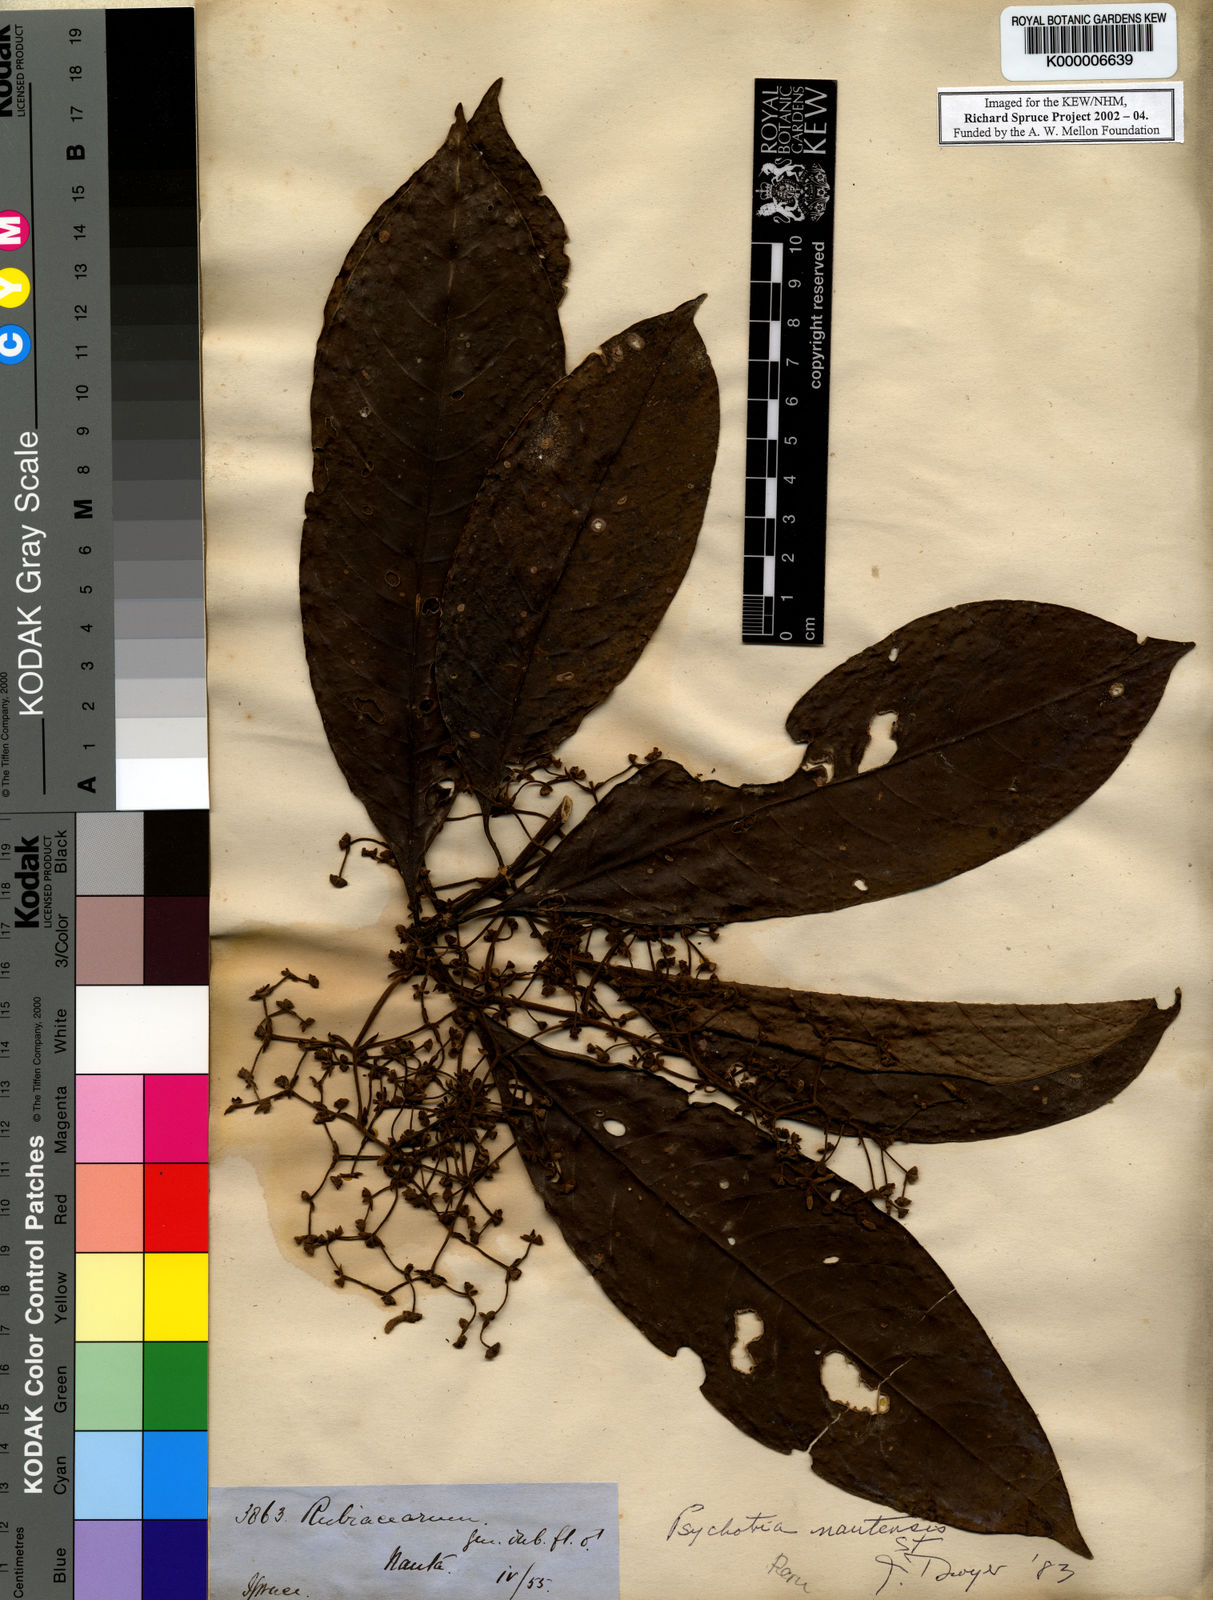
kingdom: Plantae
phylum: Tracheophyta
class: Magnoliopsida
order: Gentianales
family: Rubiaceae
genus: Palicourea
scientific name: Palicourea nautensis
